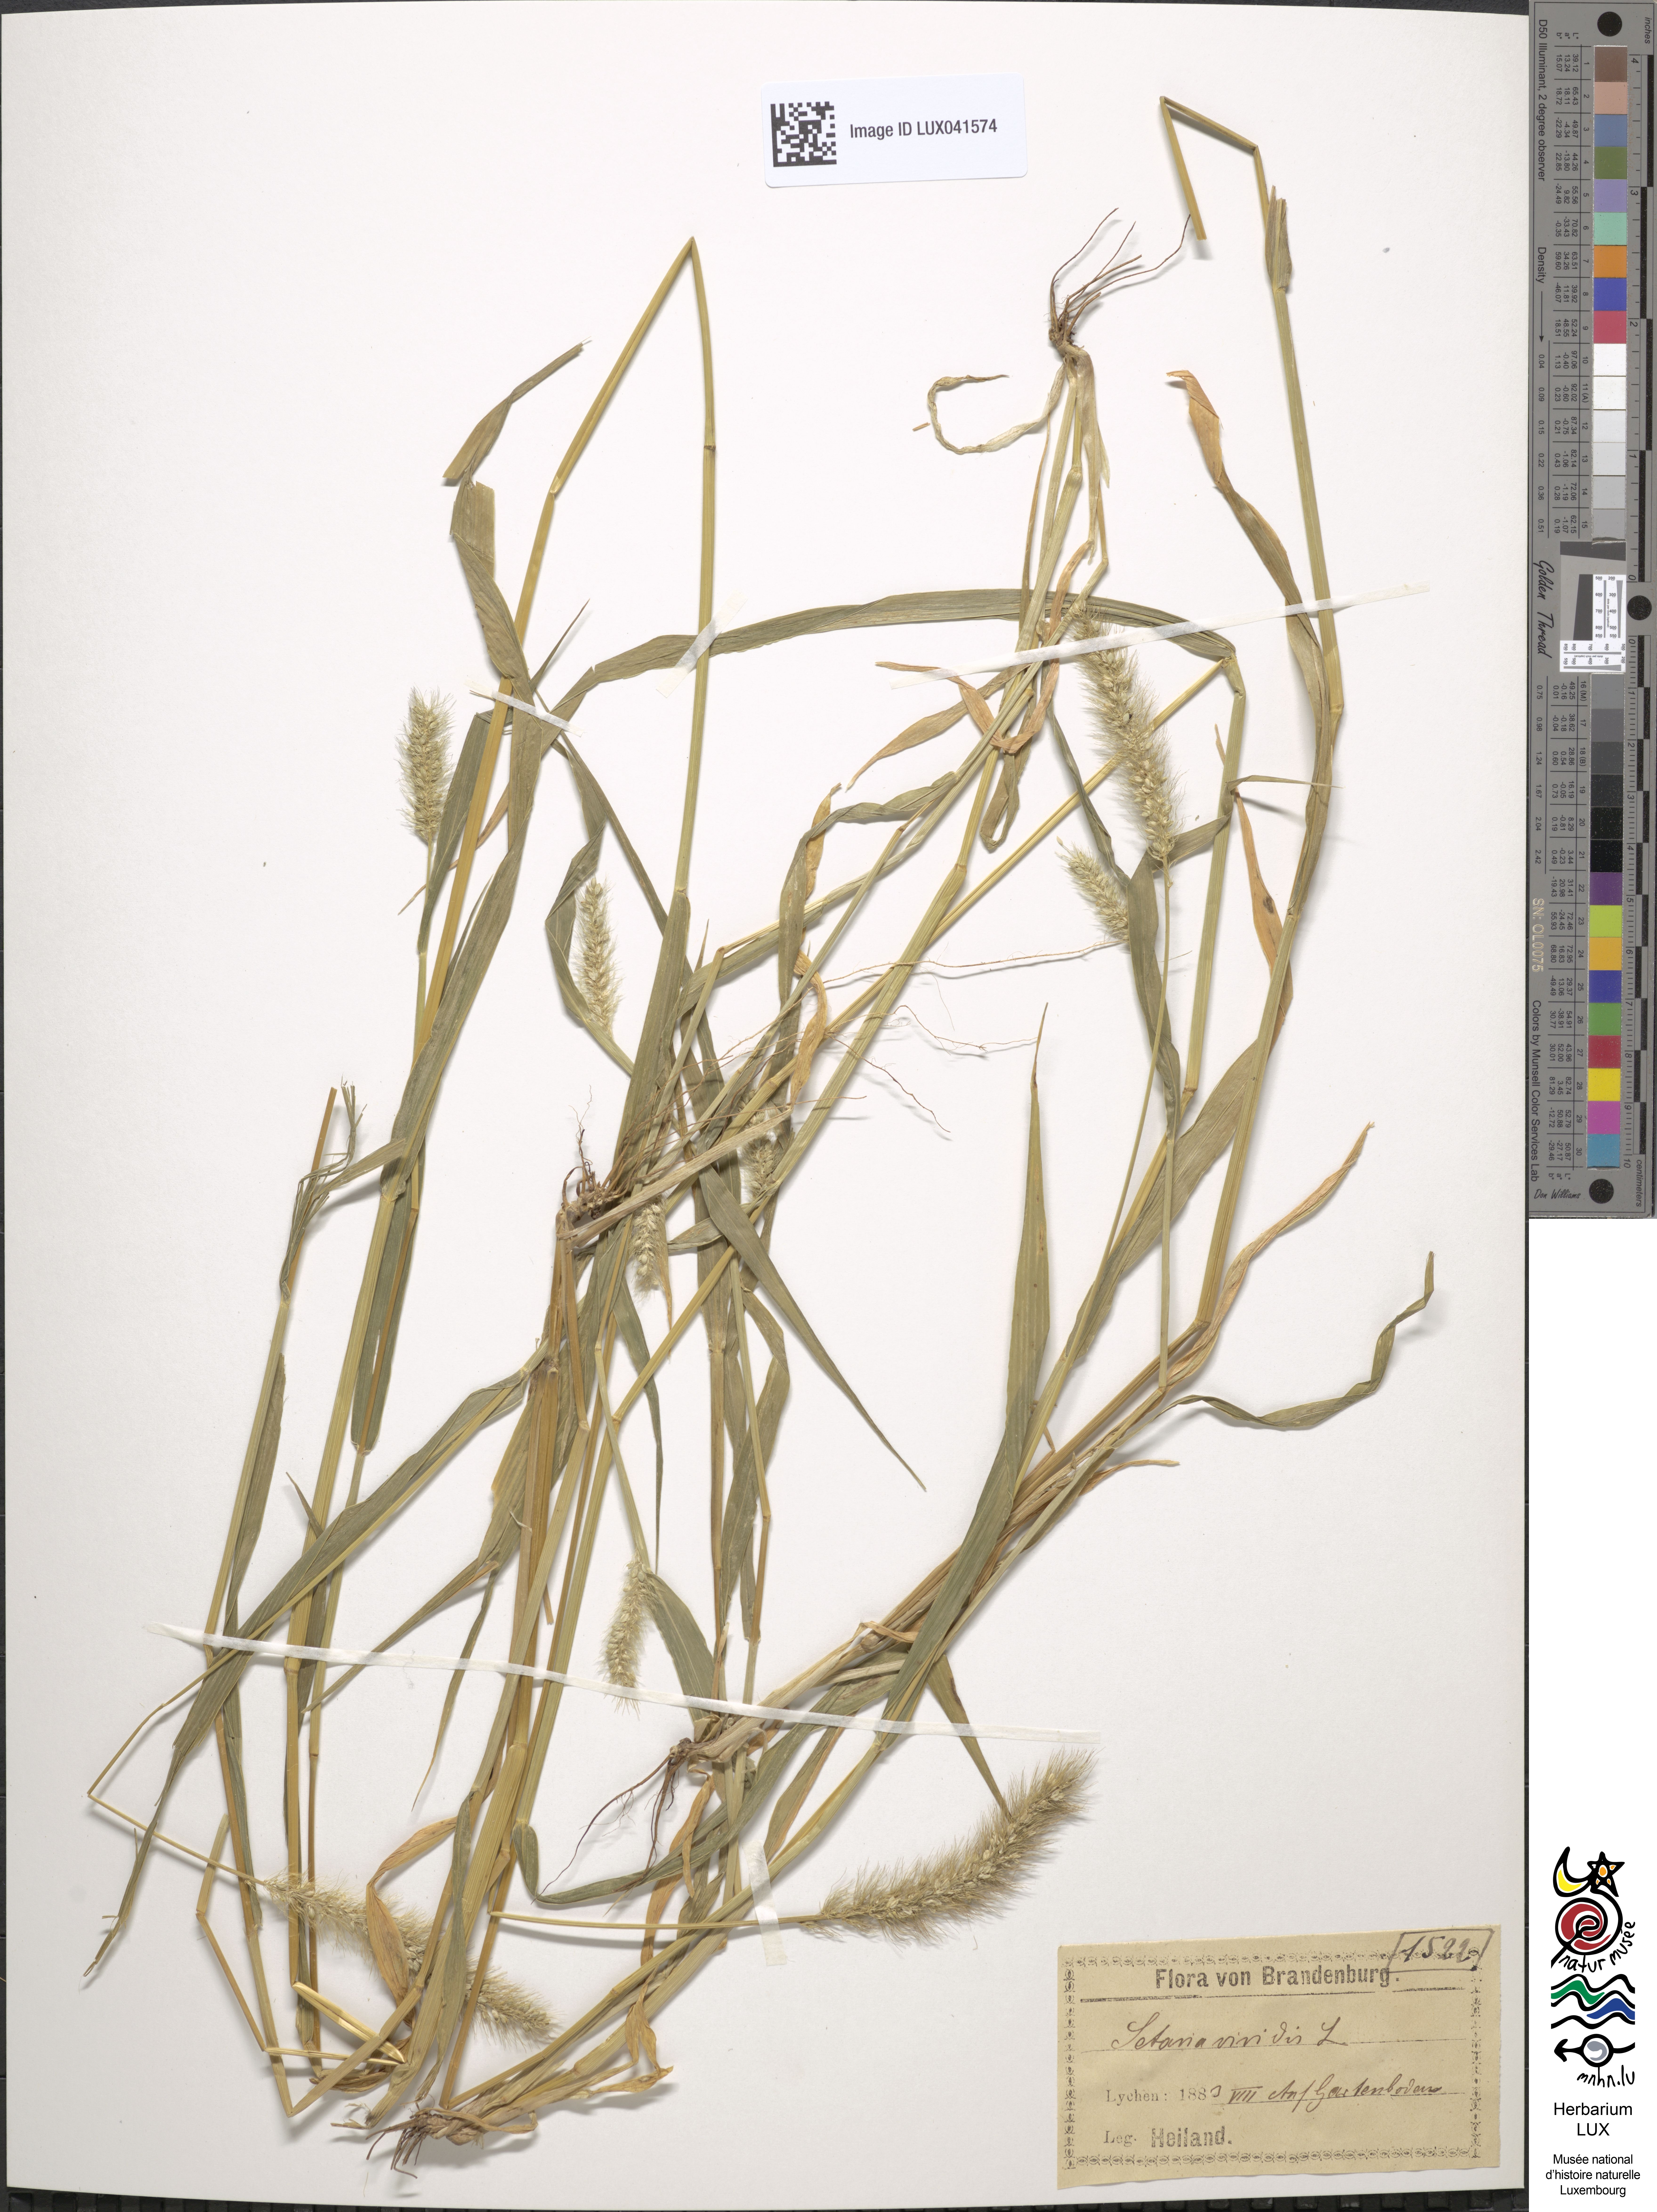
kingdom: Plantae
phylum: Tracheophyta
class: Liliopsida
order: Poales
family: Poaceae
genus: Setaria
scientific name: Setaria viridis
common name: Green bristlegrass
